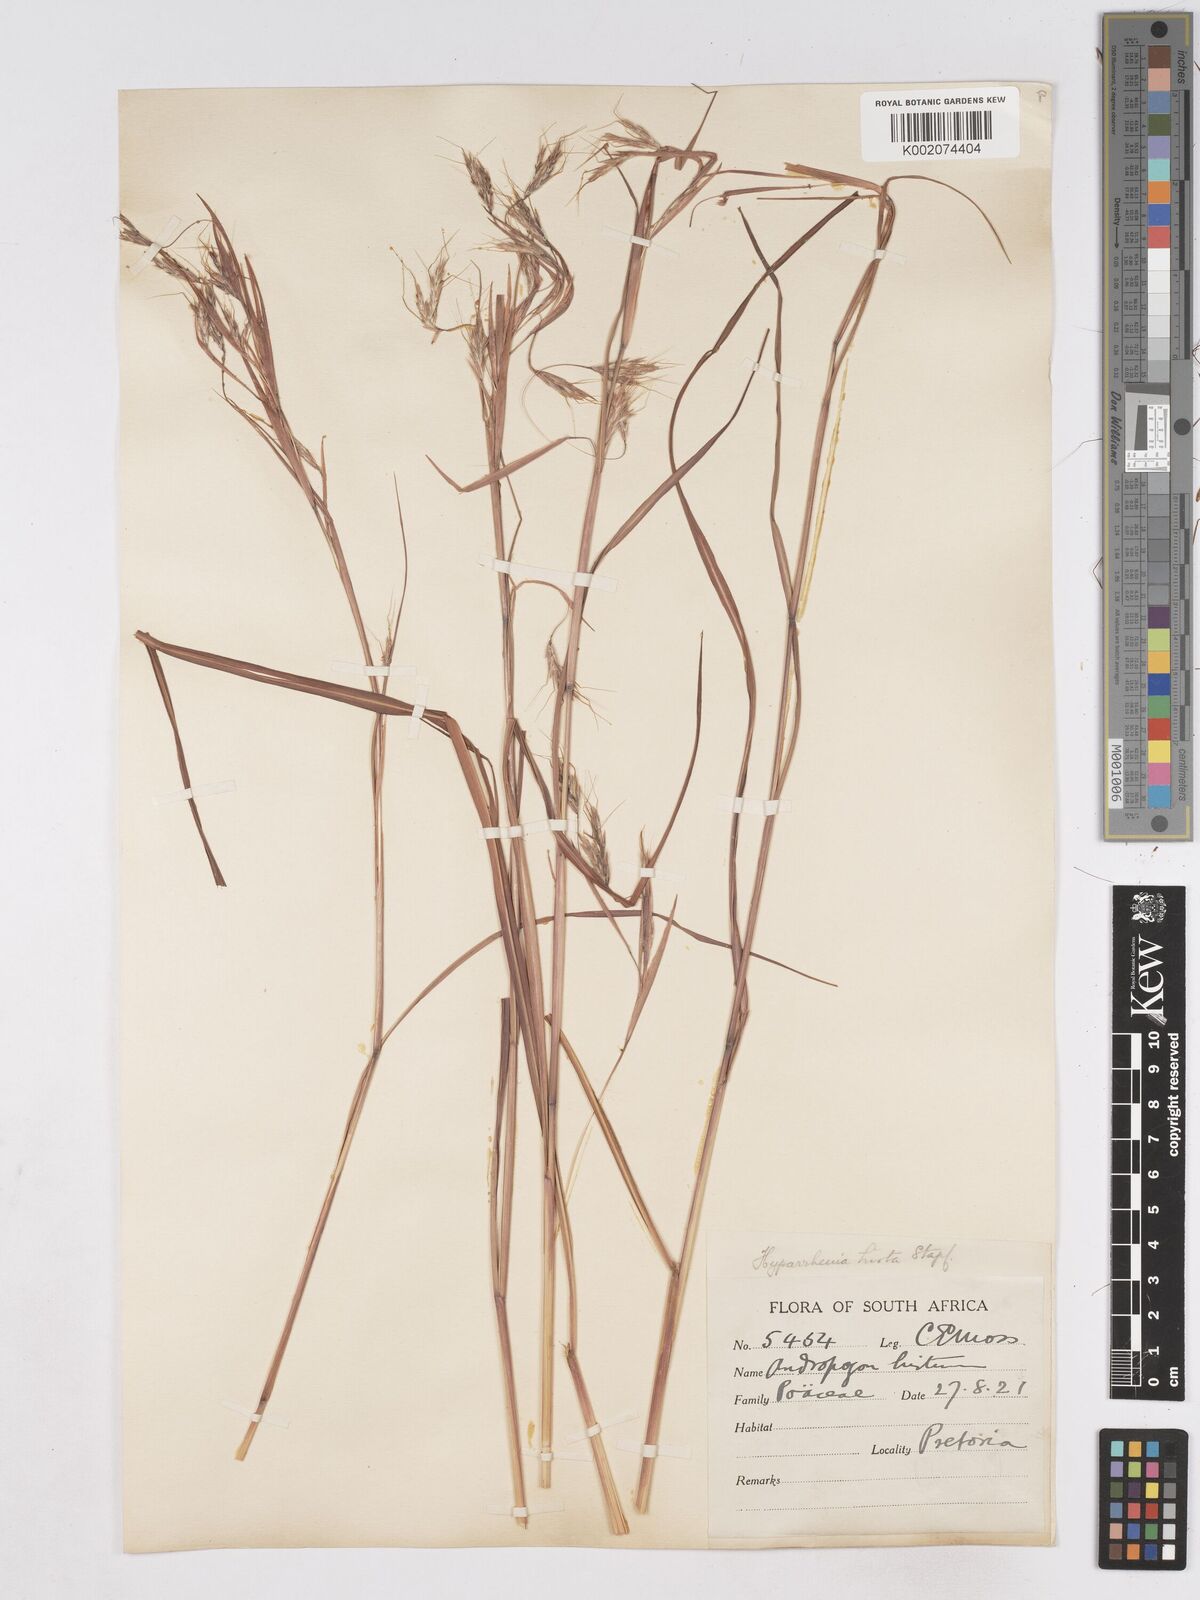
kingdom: Plantae
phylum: Tracheophyta
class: Liliopsida
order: Poales
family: Poaceae
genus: Hyparrhenia
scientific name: Hyparrhenia hirta
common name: Thatching grass
